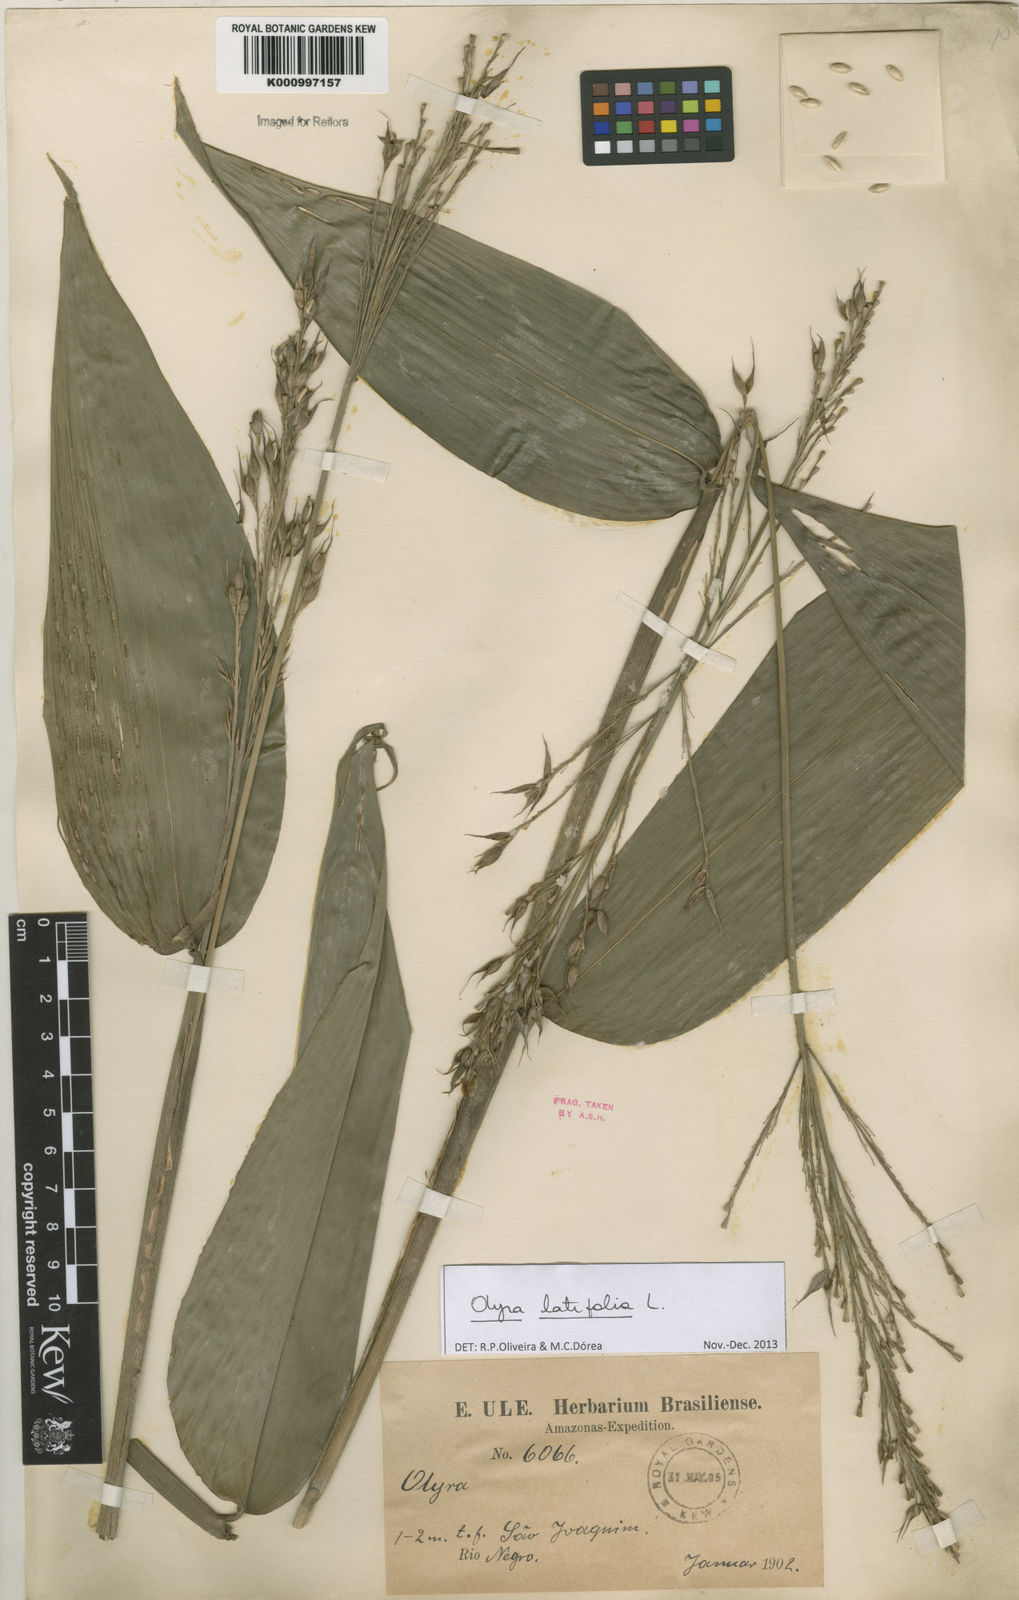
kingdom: Plantae
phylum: Tracheophyta
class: Liliopsida
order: Poales
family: Poaceae
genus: Olyra
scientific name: Olyra latifolia
